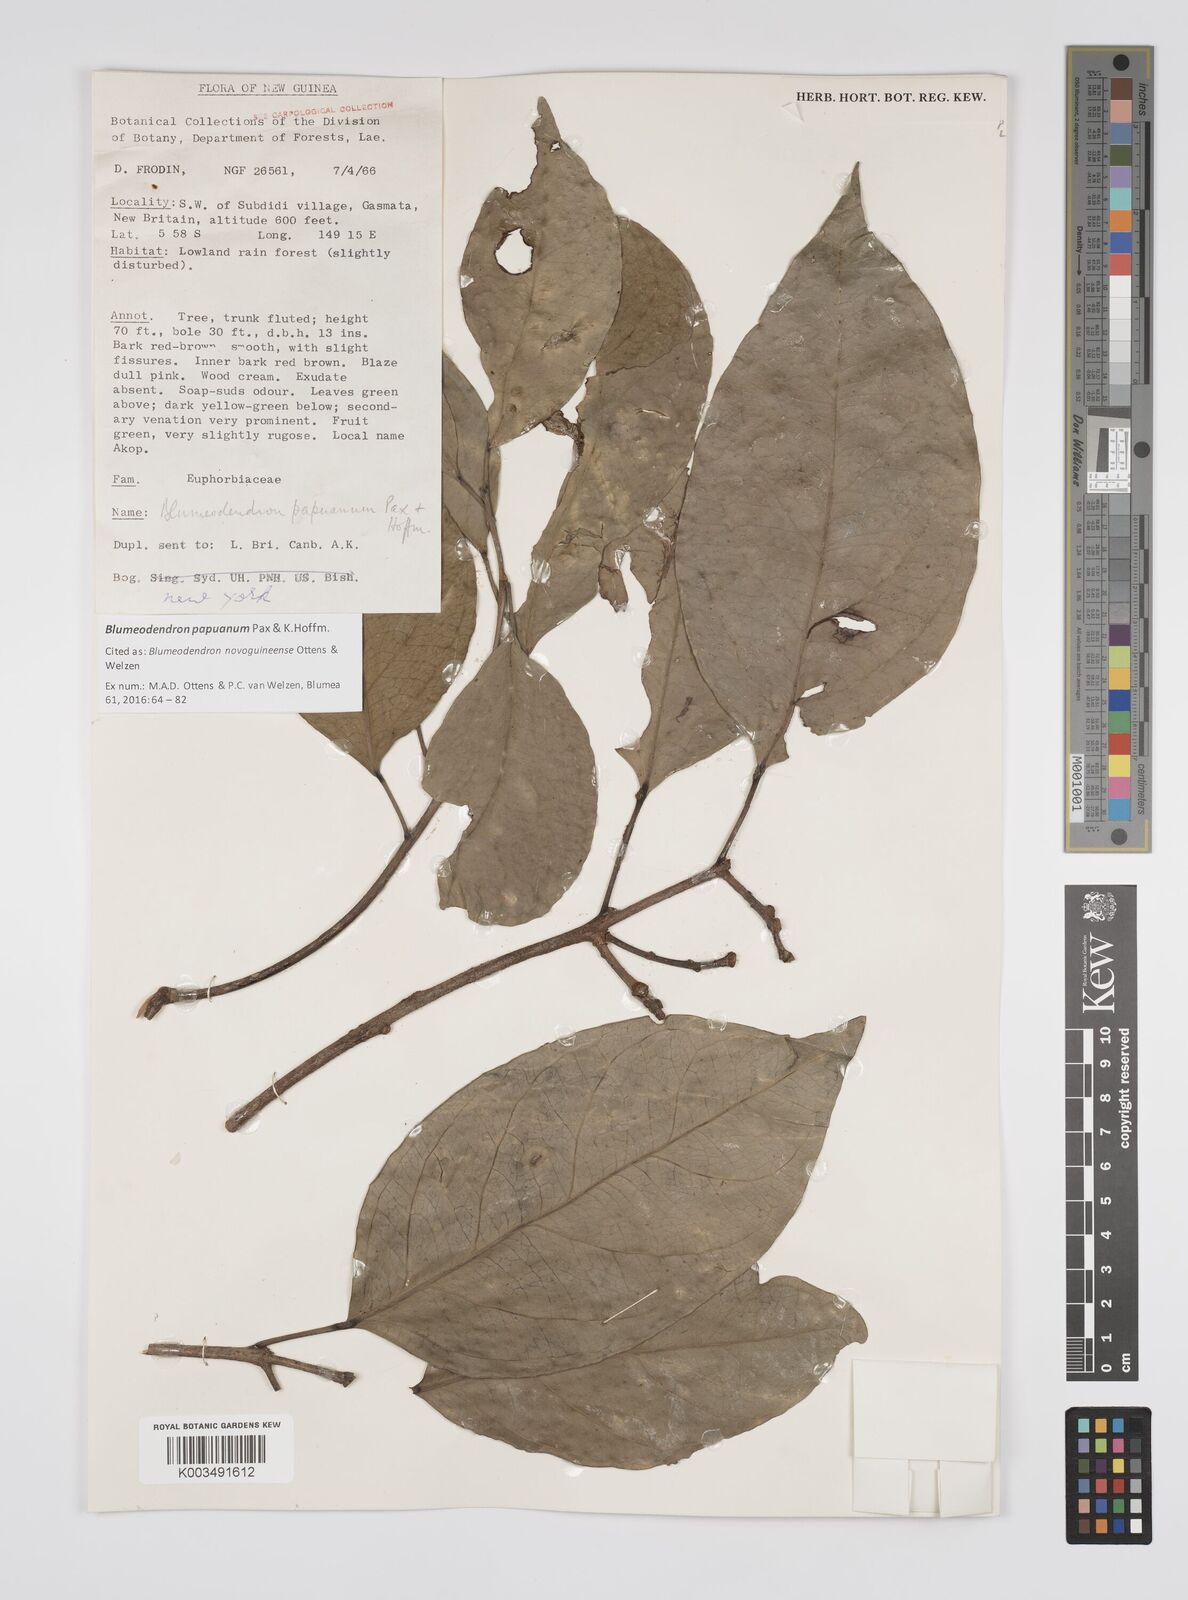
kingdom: Plantae
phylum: Tracheophyta
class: Magnoliopsida
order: Malpighiales
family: Euphorbiaceae
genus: Blumeodendron
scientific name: Blumeodendron papuanum
